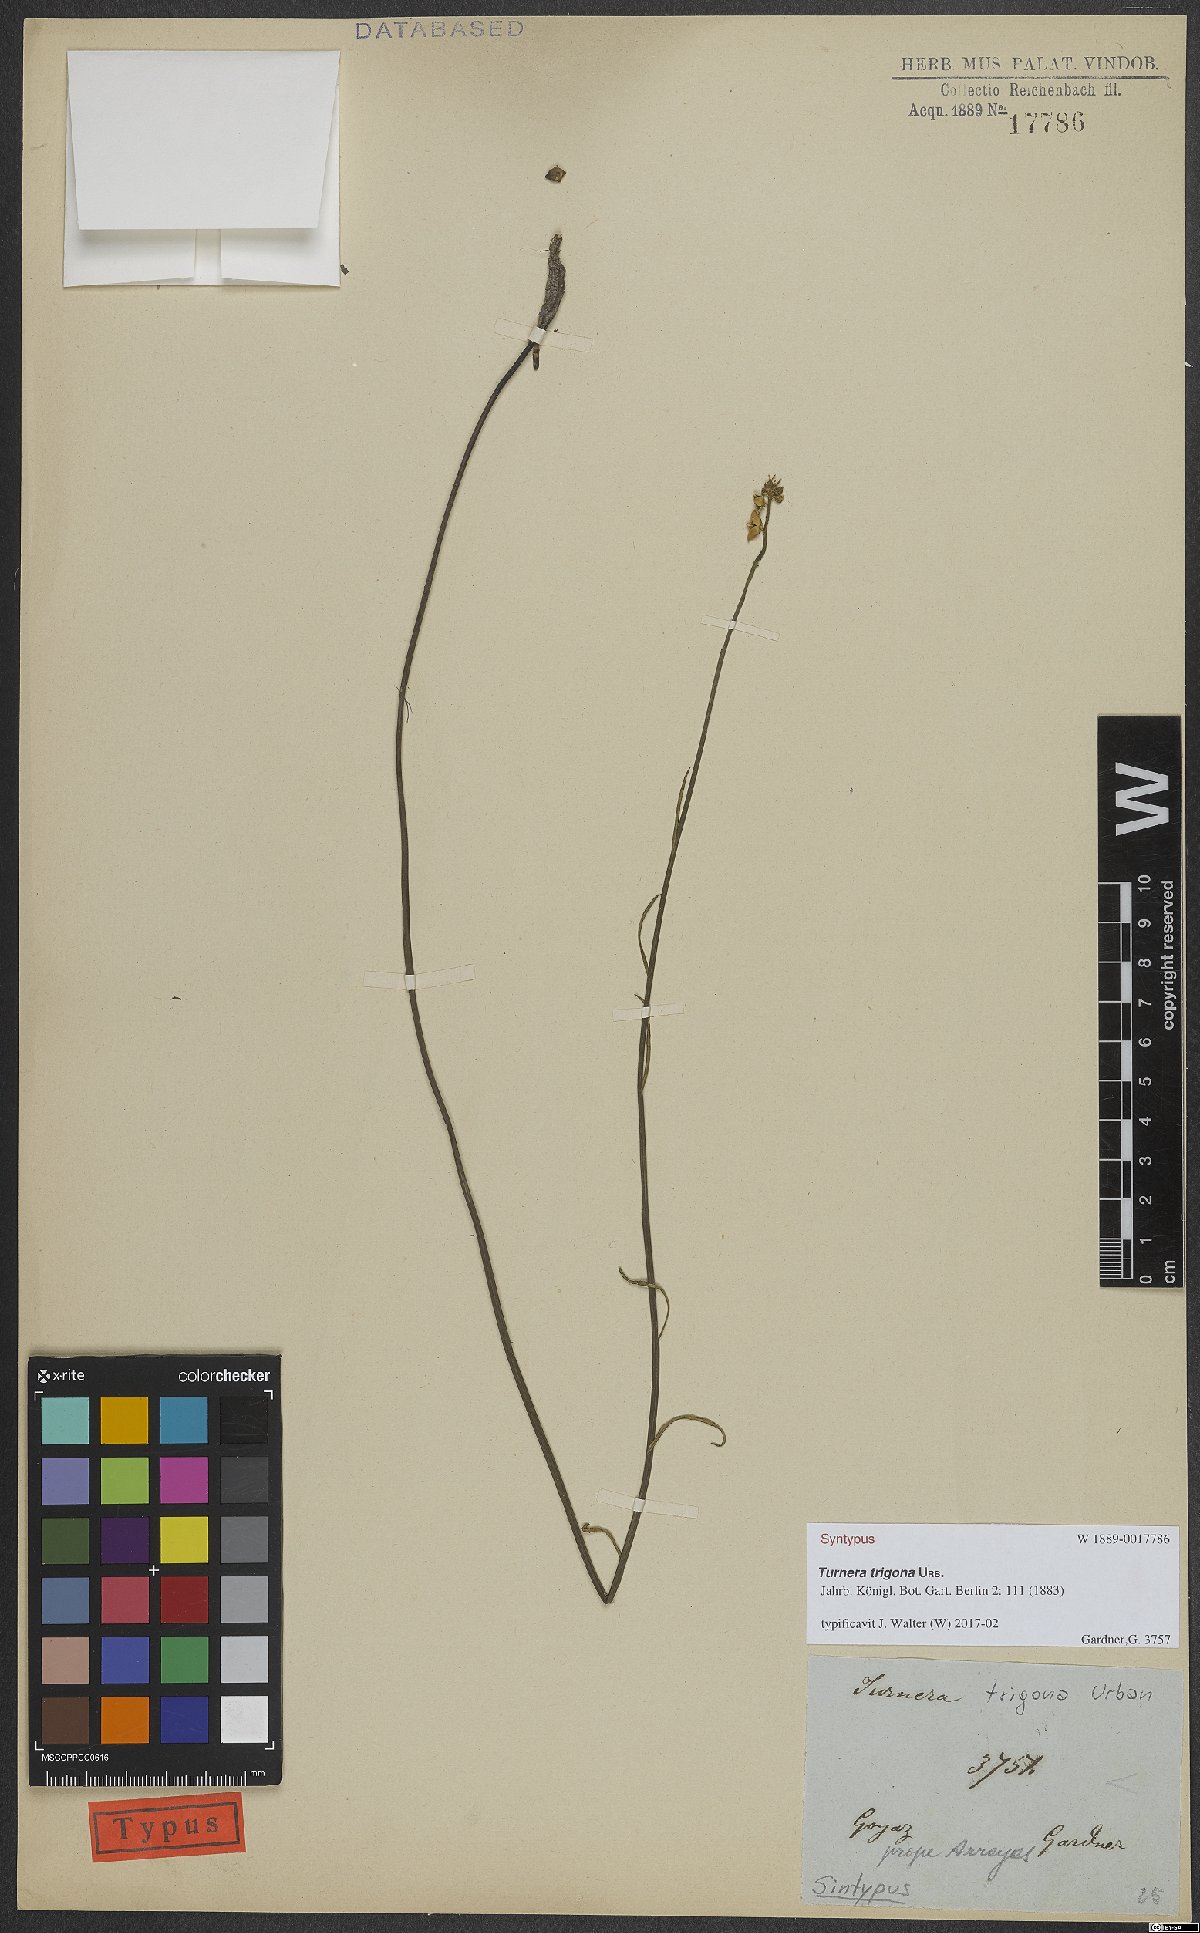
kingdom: Plantae
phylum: Tracheophyta
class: Magnoliopsida
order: Malpighiales
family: Turneraceae
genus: Turnera
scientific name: Turnera trigona
